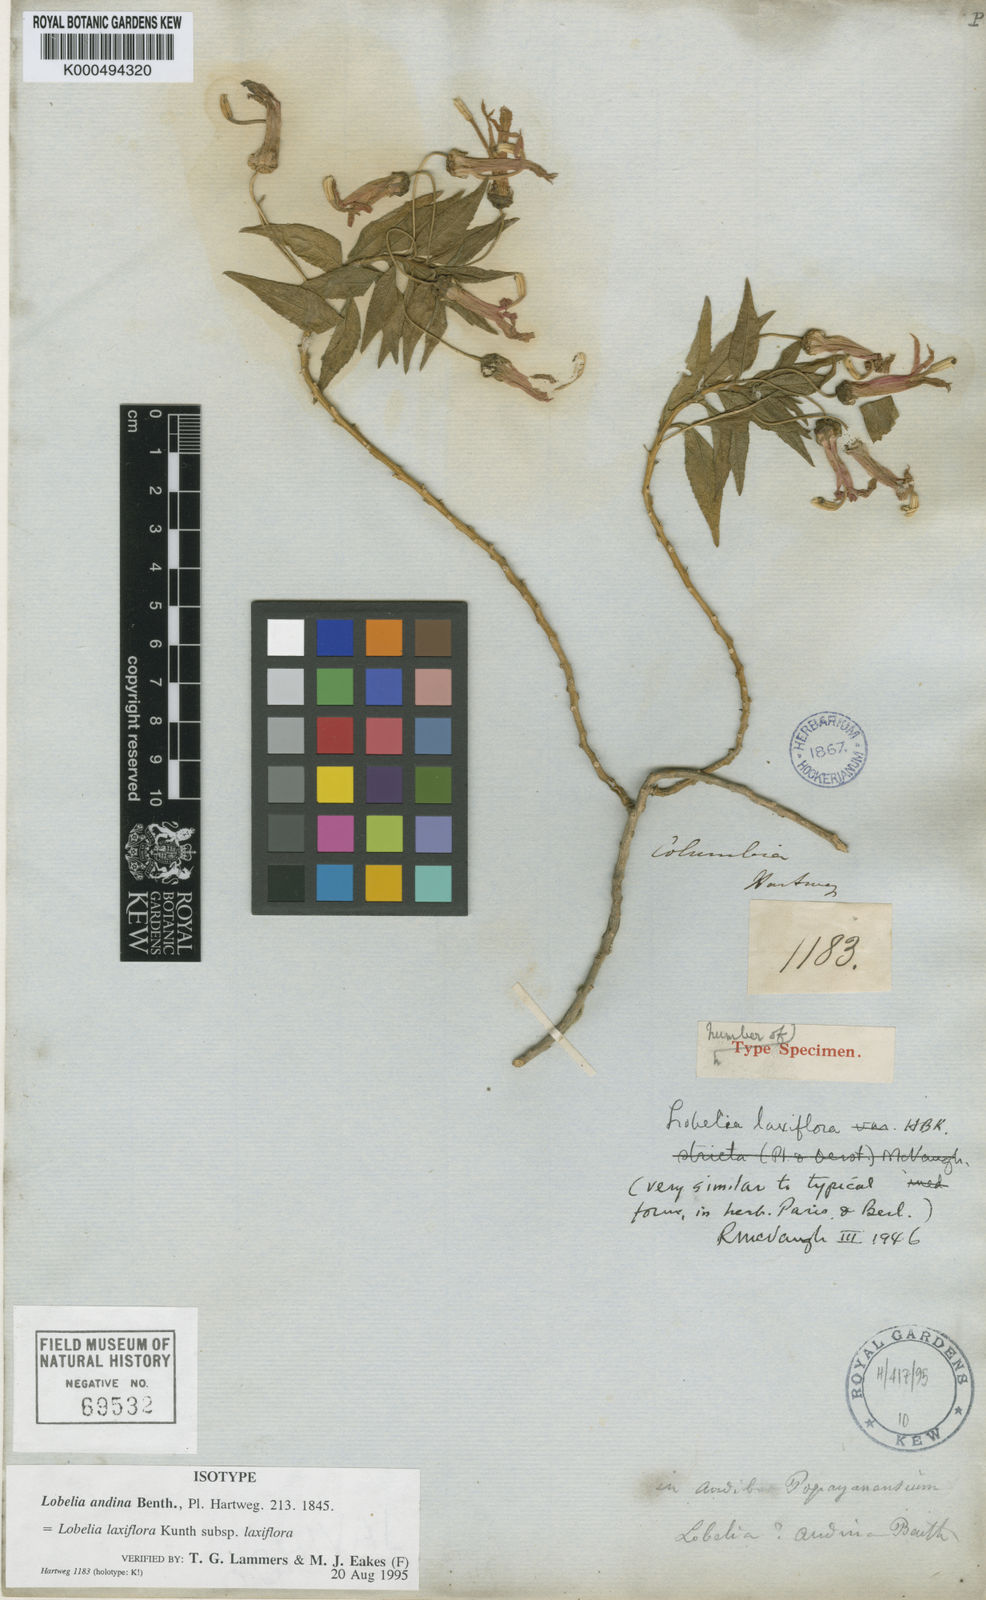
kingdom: Plantae
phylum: Tracheophyta
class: Magnoliopsida
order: Asterales
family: Campanulaceae
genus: Lobelia
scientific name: Lobelia laxiflora
